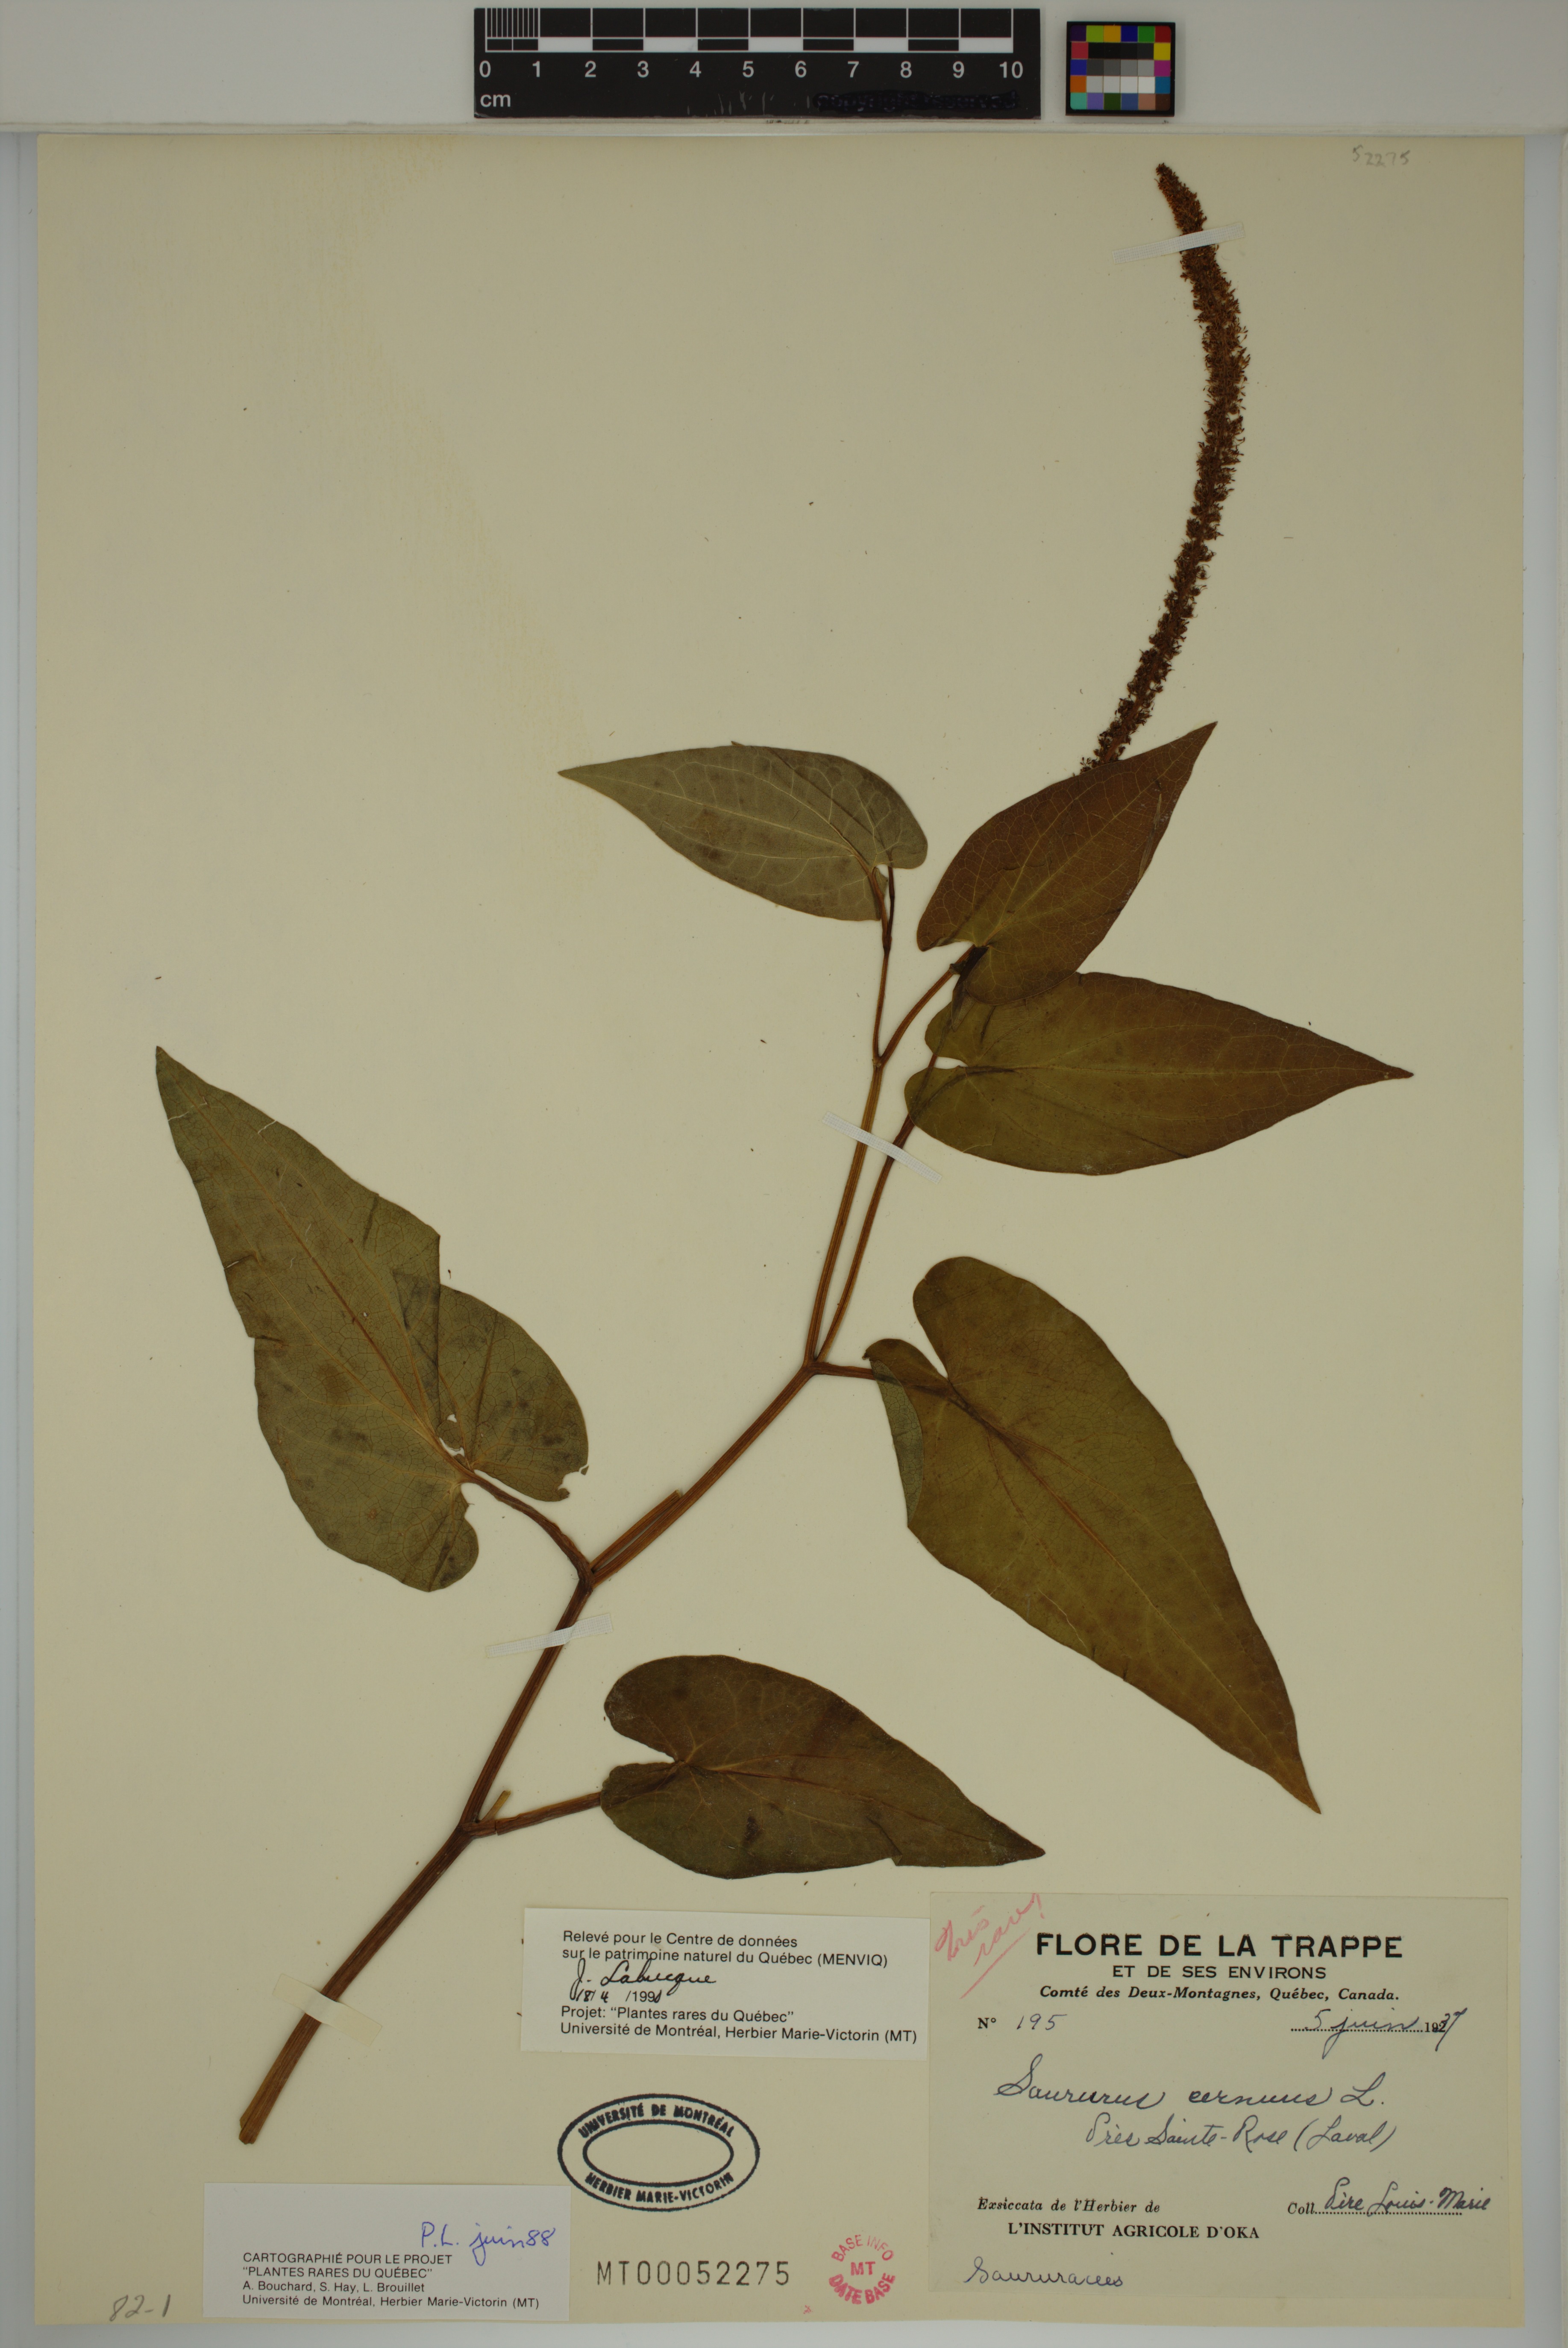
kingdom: Plantae
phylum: Tracheophyta
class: Magnoliopsida
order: Piperales
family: Saururaceae
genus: Saururus
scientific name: Saururus cernuus
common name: Lizard's-tail
